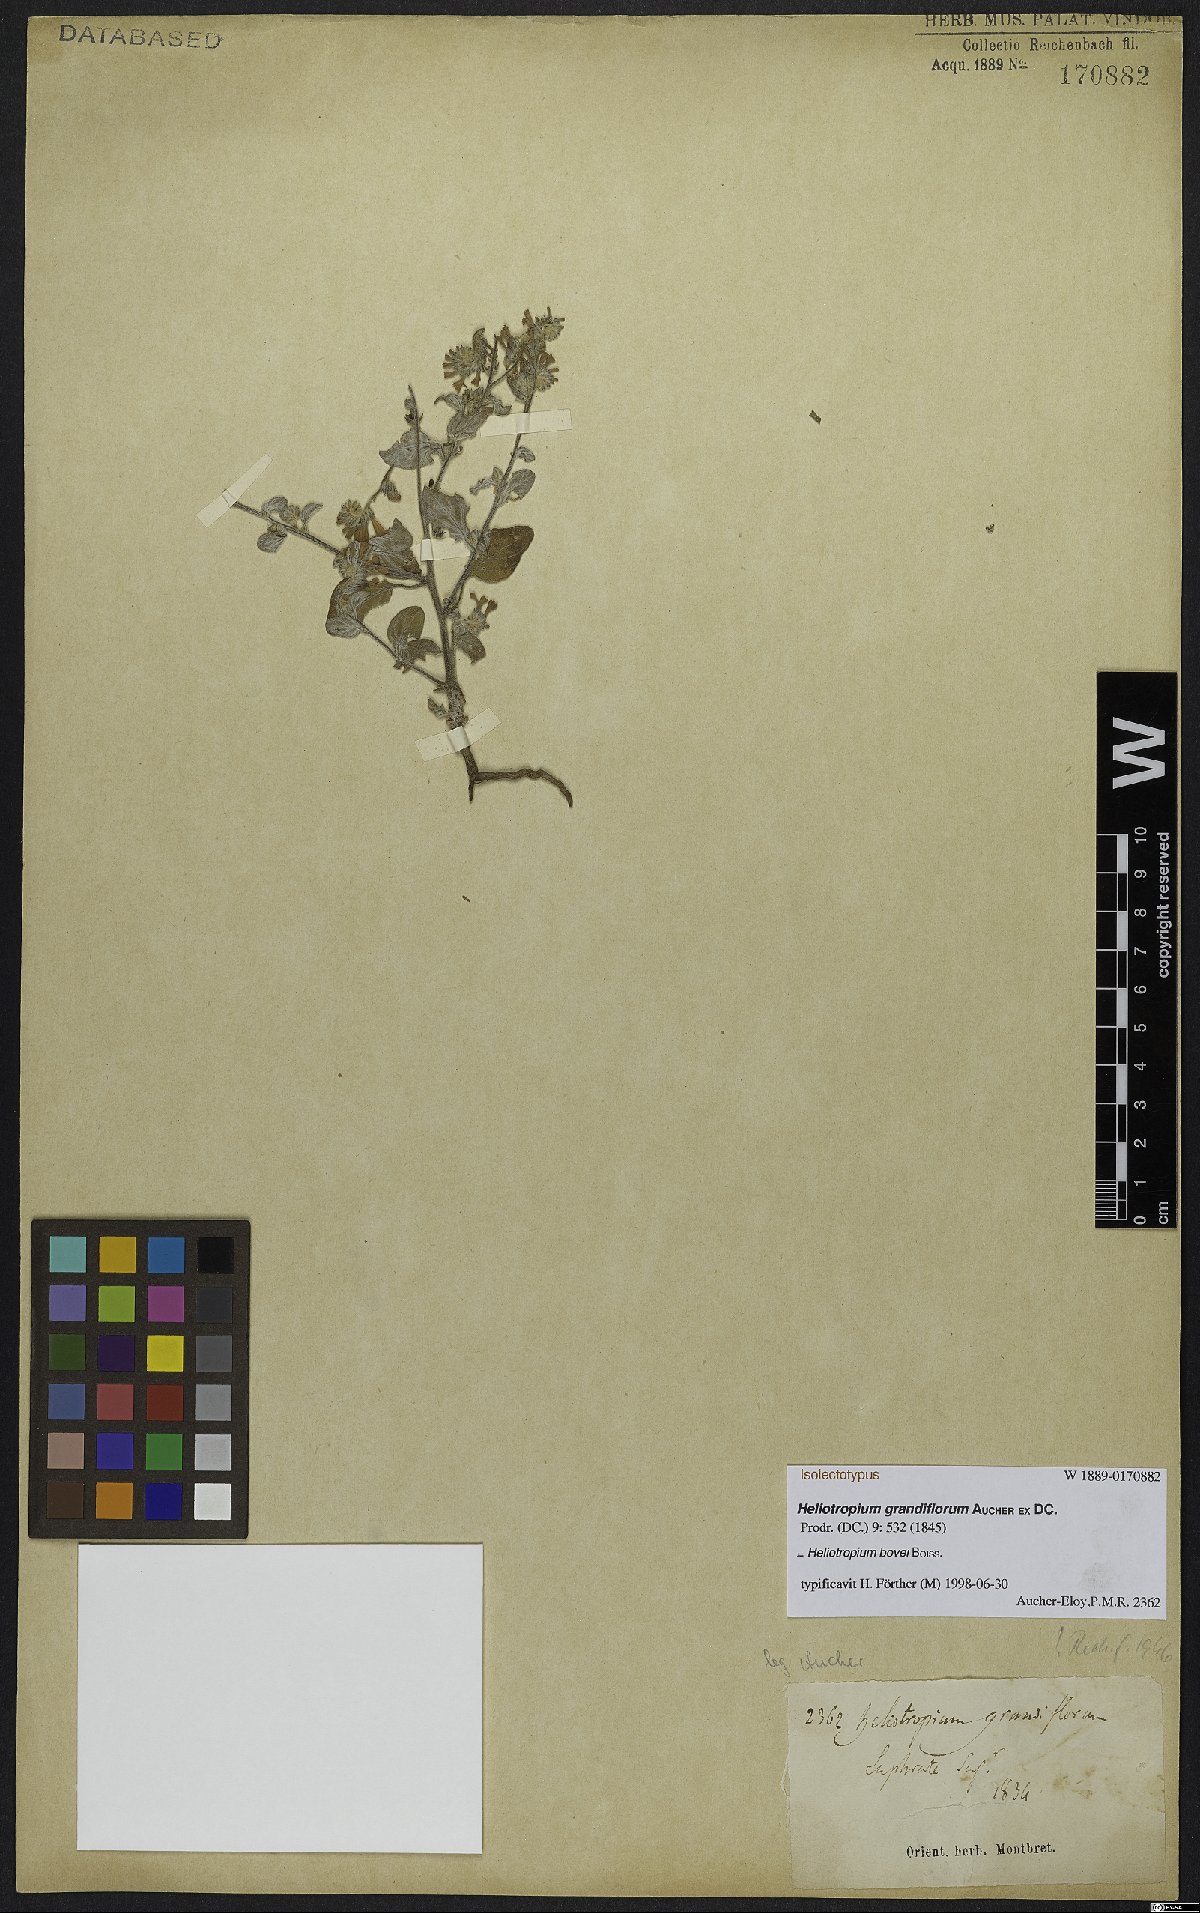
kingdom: Plantae
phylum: Tracheophyta
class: Magnoliopsida
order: Boraginales
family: Heliotropiaceae
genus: Heliotropium
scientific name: Heliotropium bovei
